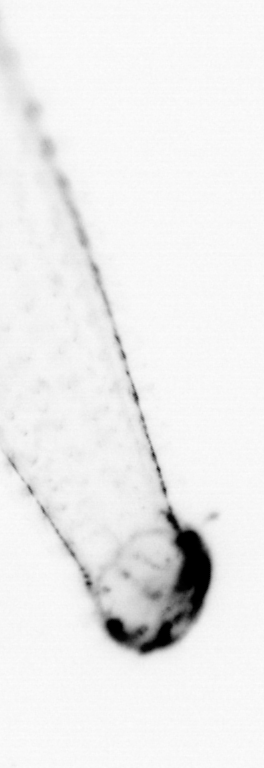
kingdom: Animalia
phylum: Chaetognatha
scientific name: Chaetognatha
